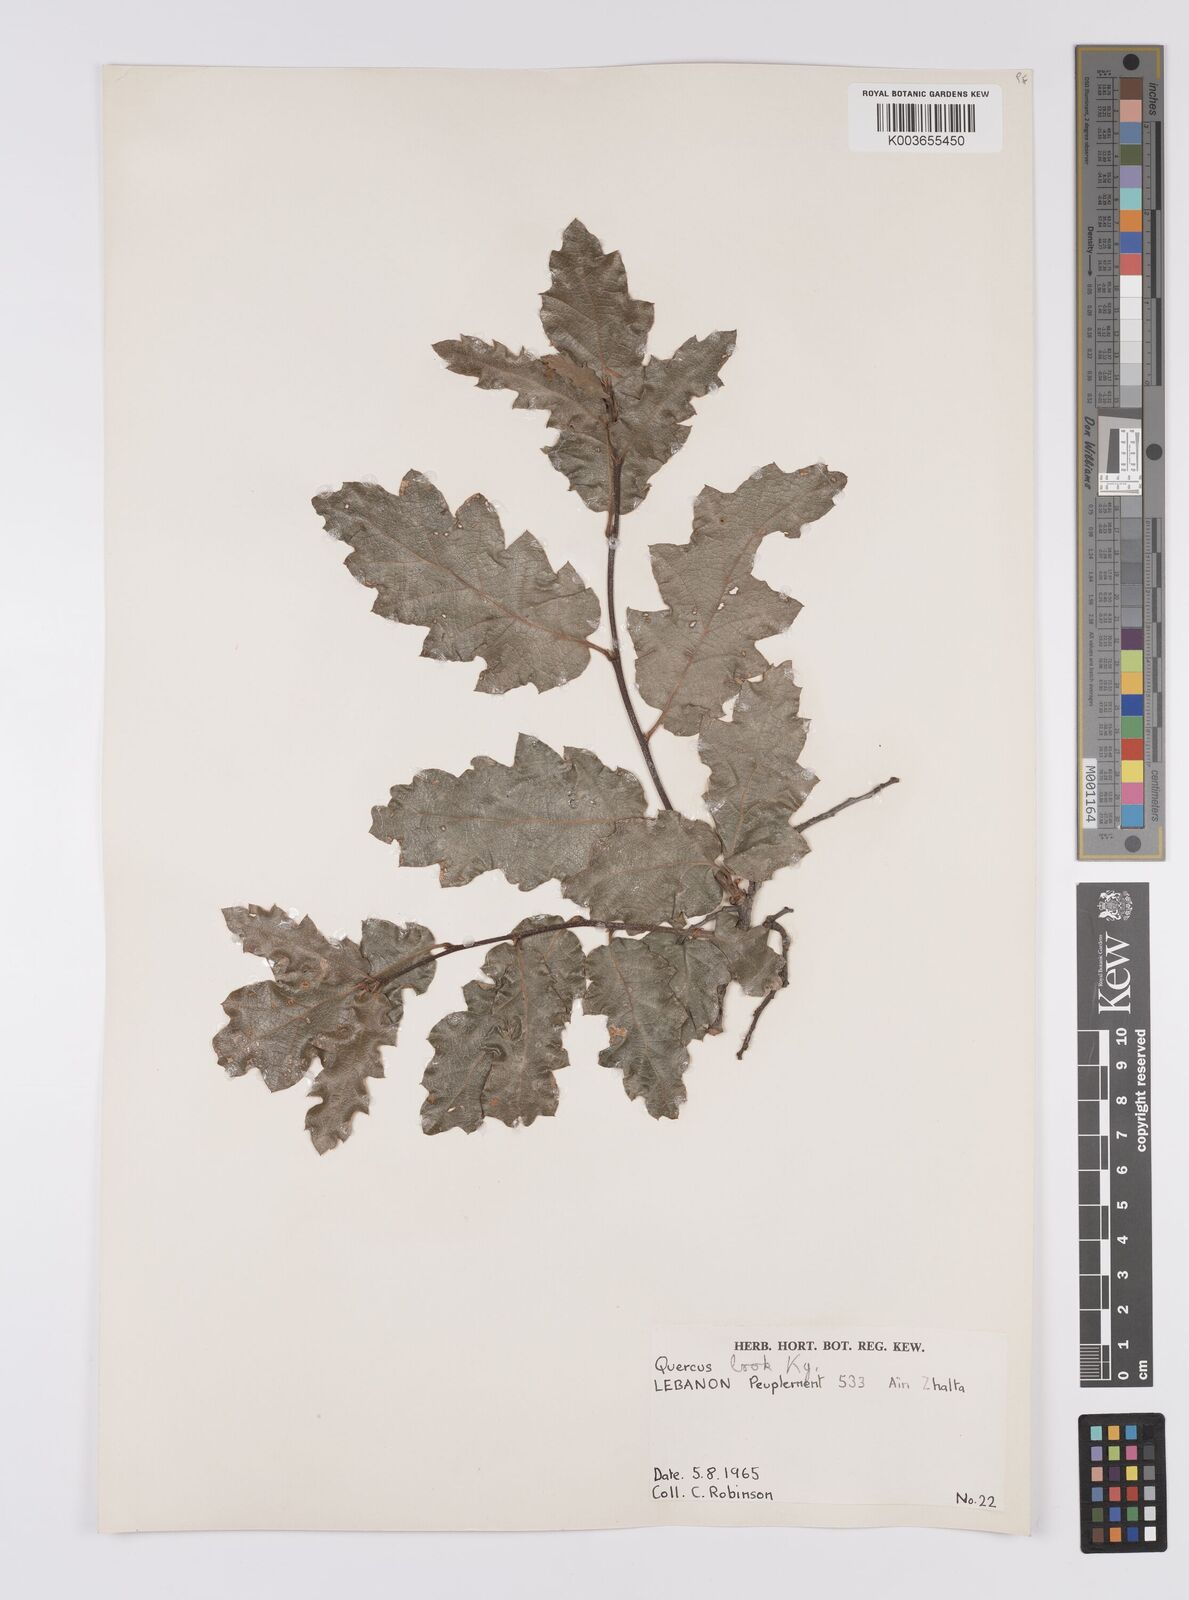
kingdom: Plantae
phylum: Tracheophyta
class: Magnoliopsida
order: Fagales
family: Fagaceae
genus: Quercus
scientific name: Quercus look
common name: Look oak
